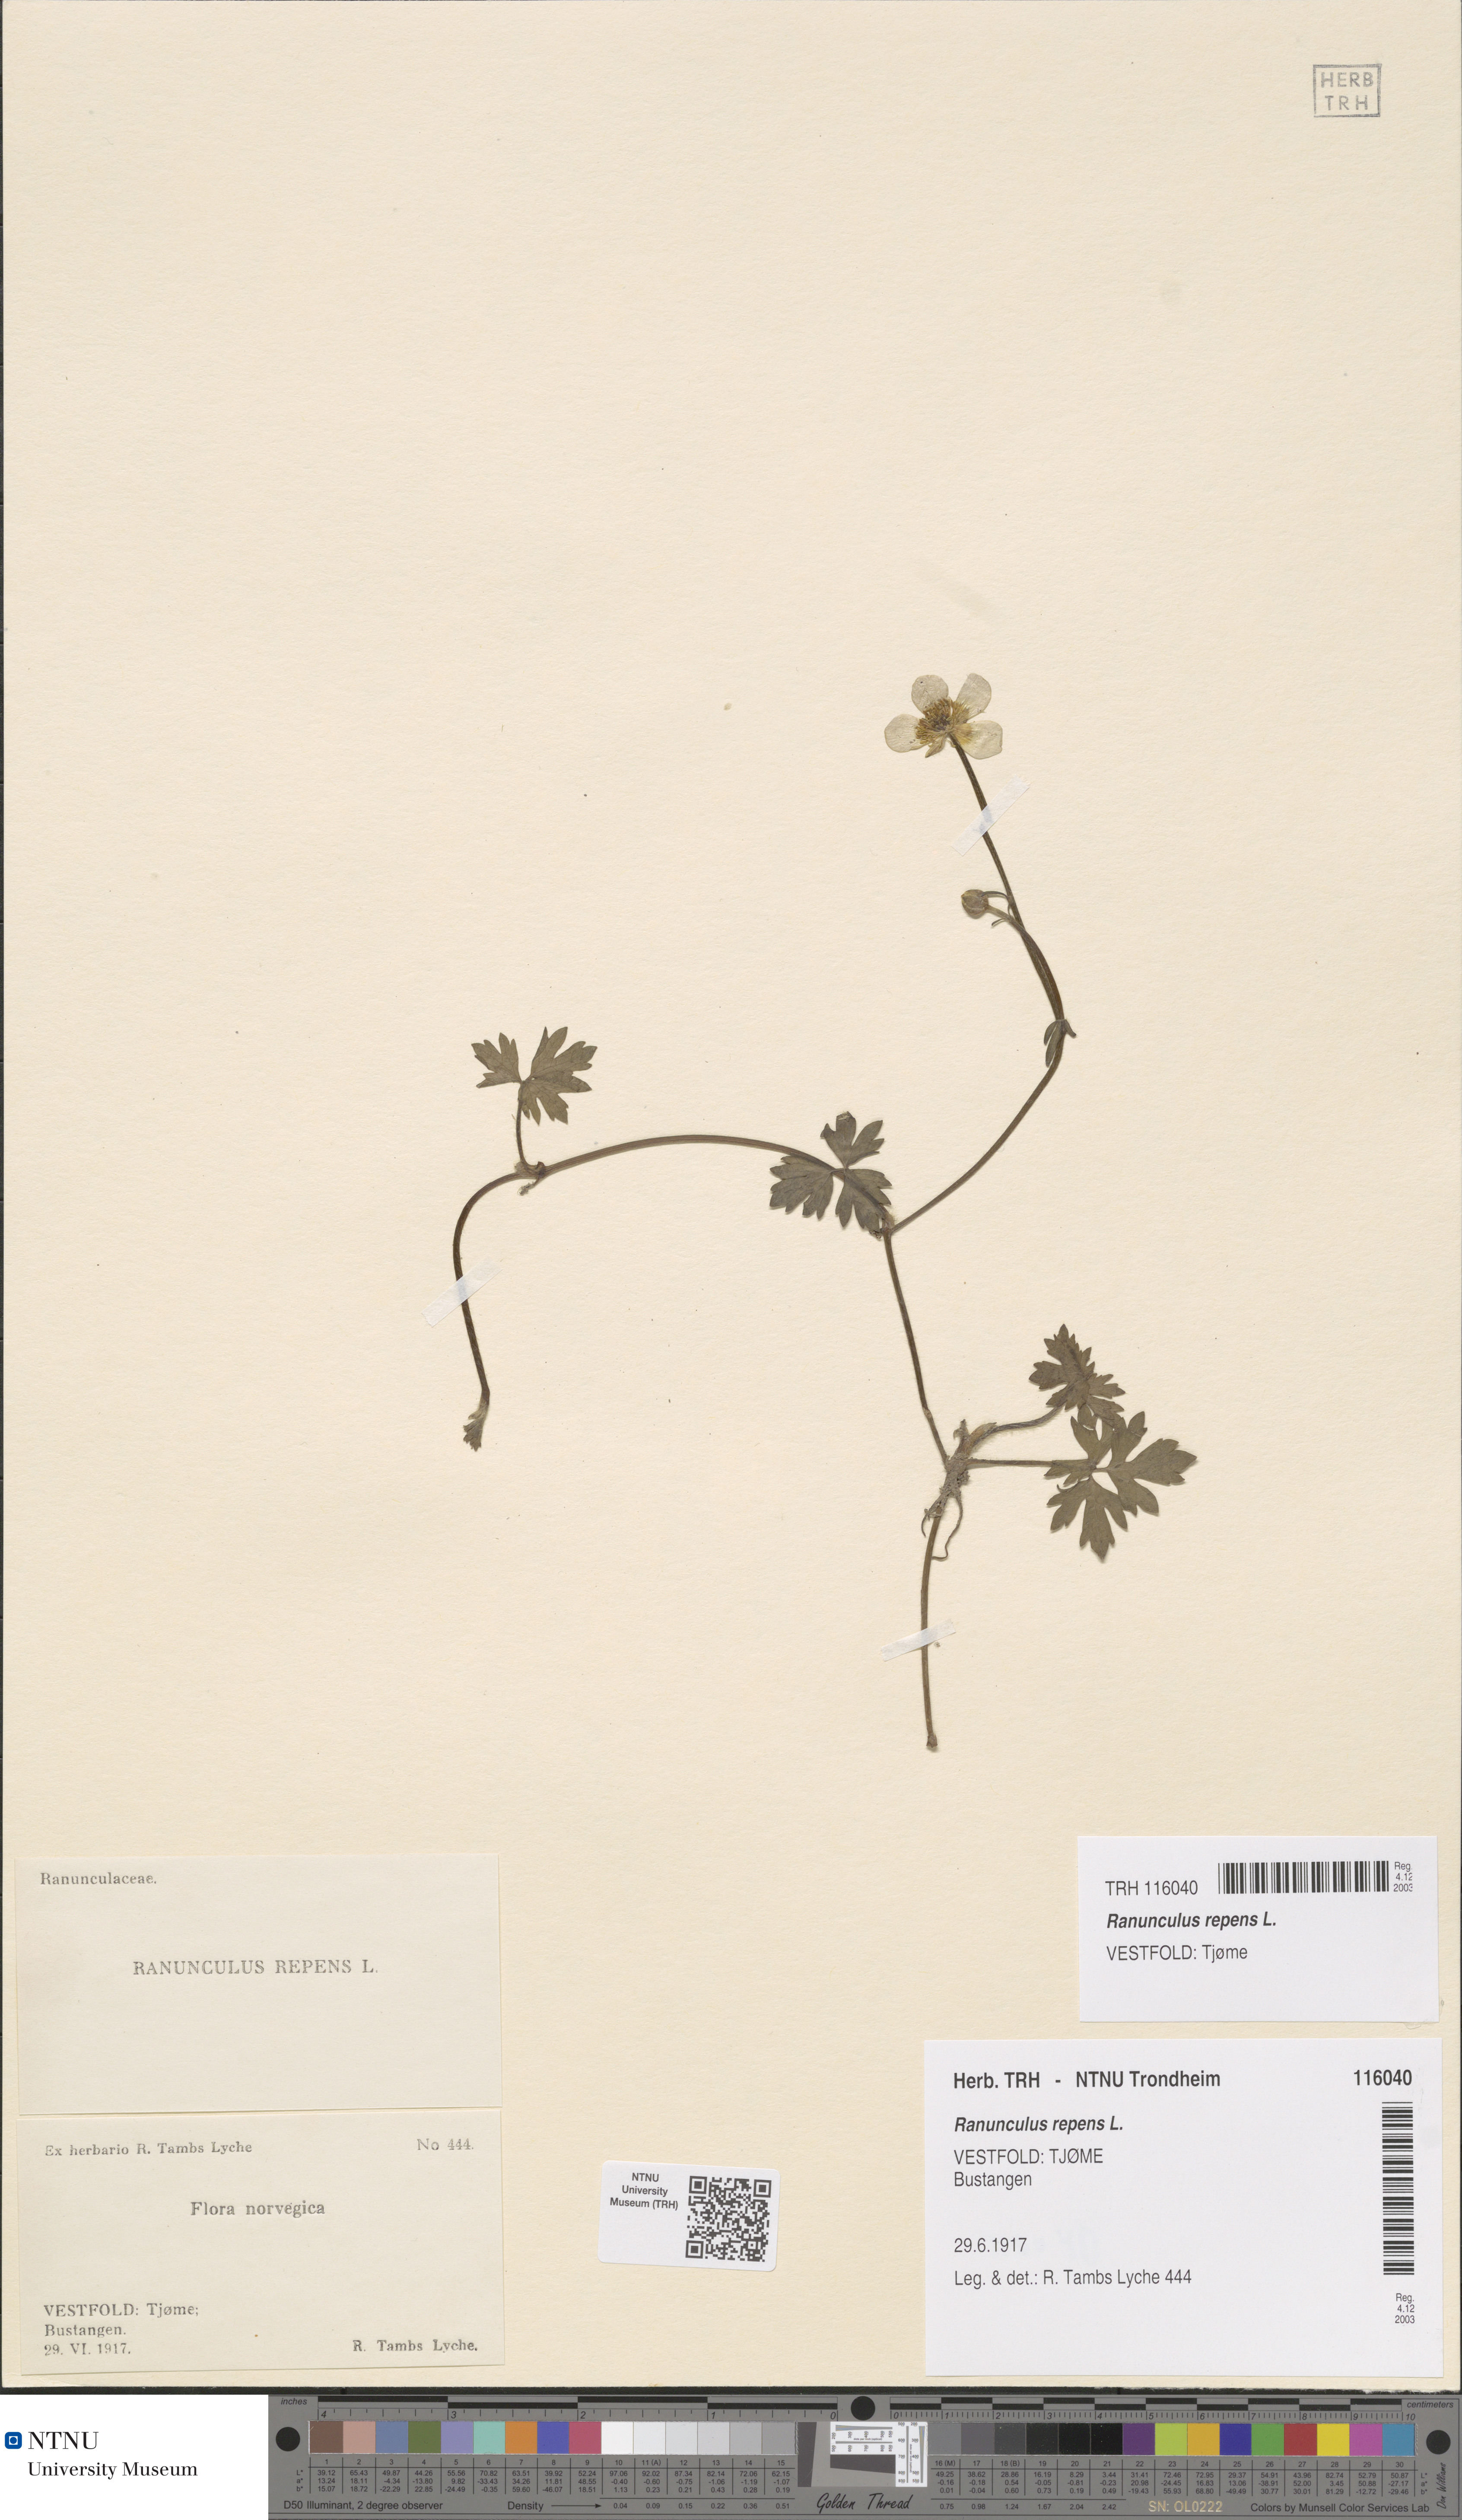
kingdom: Plantae
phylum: Tracheophyta
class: Magnoliopsida
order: Ranunculales
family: Ranunculaceae
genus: Ranunculus
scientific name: Ranunculus repens
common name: Creeping buttercup
